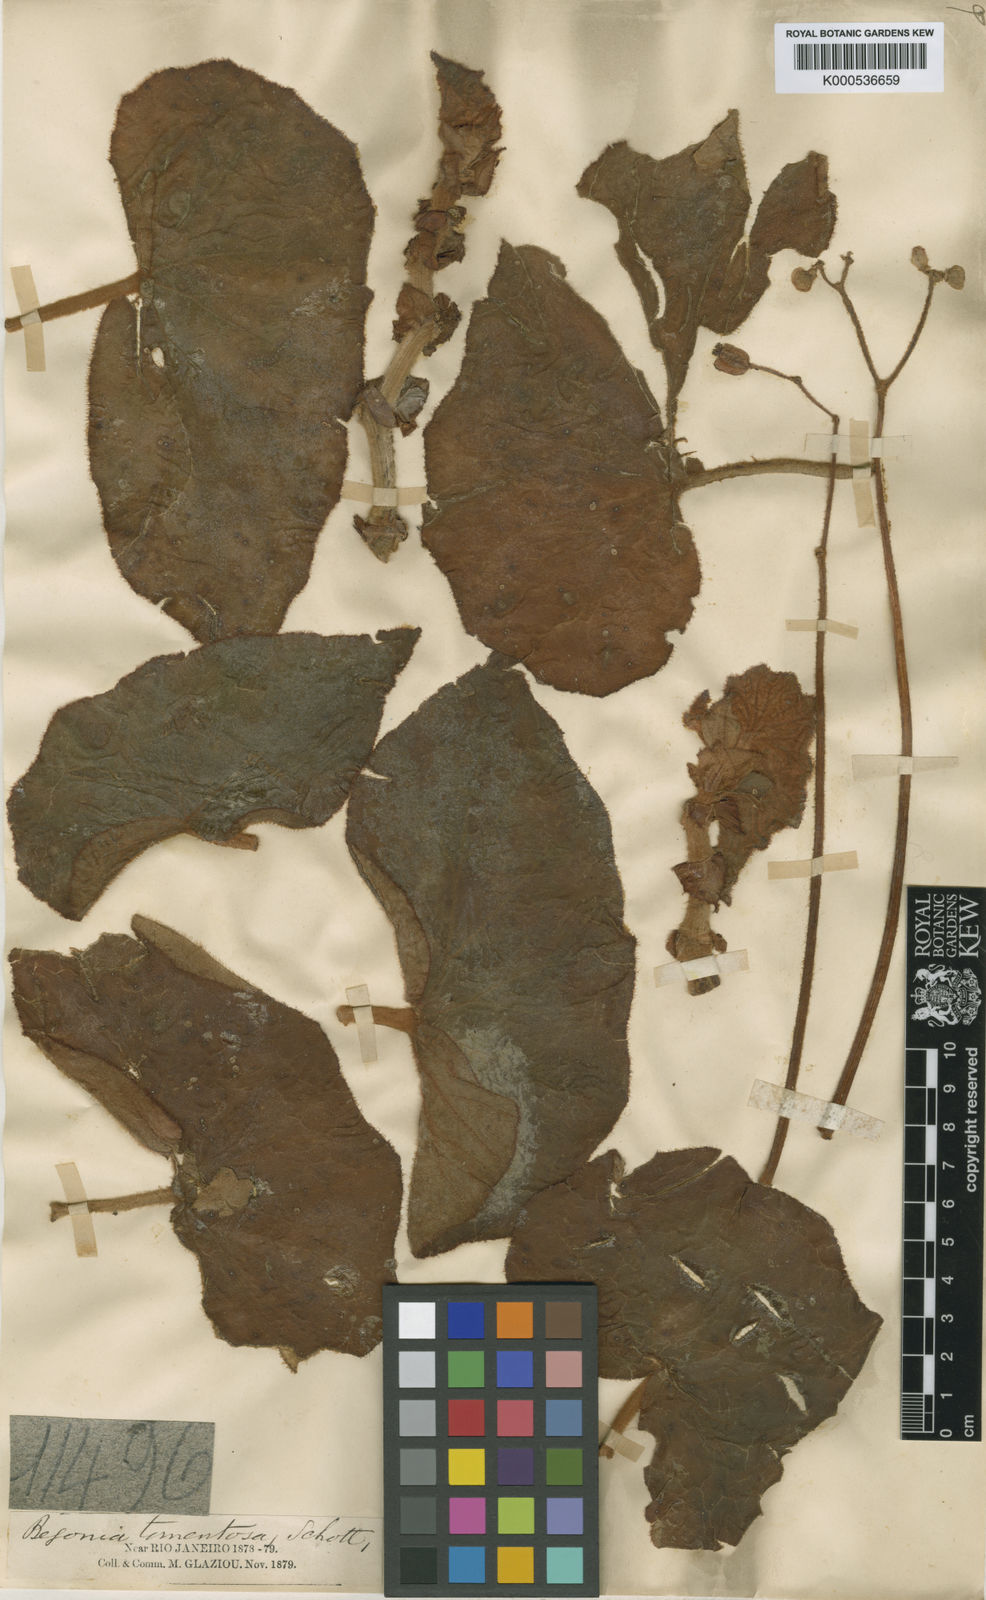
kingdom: Plantae
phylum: Tracheophyta
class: Magnoliopsida
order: Cucurbitales
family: Begoniaceae
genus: Begonia
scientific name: Begonia tomentosa
